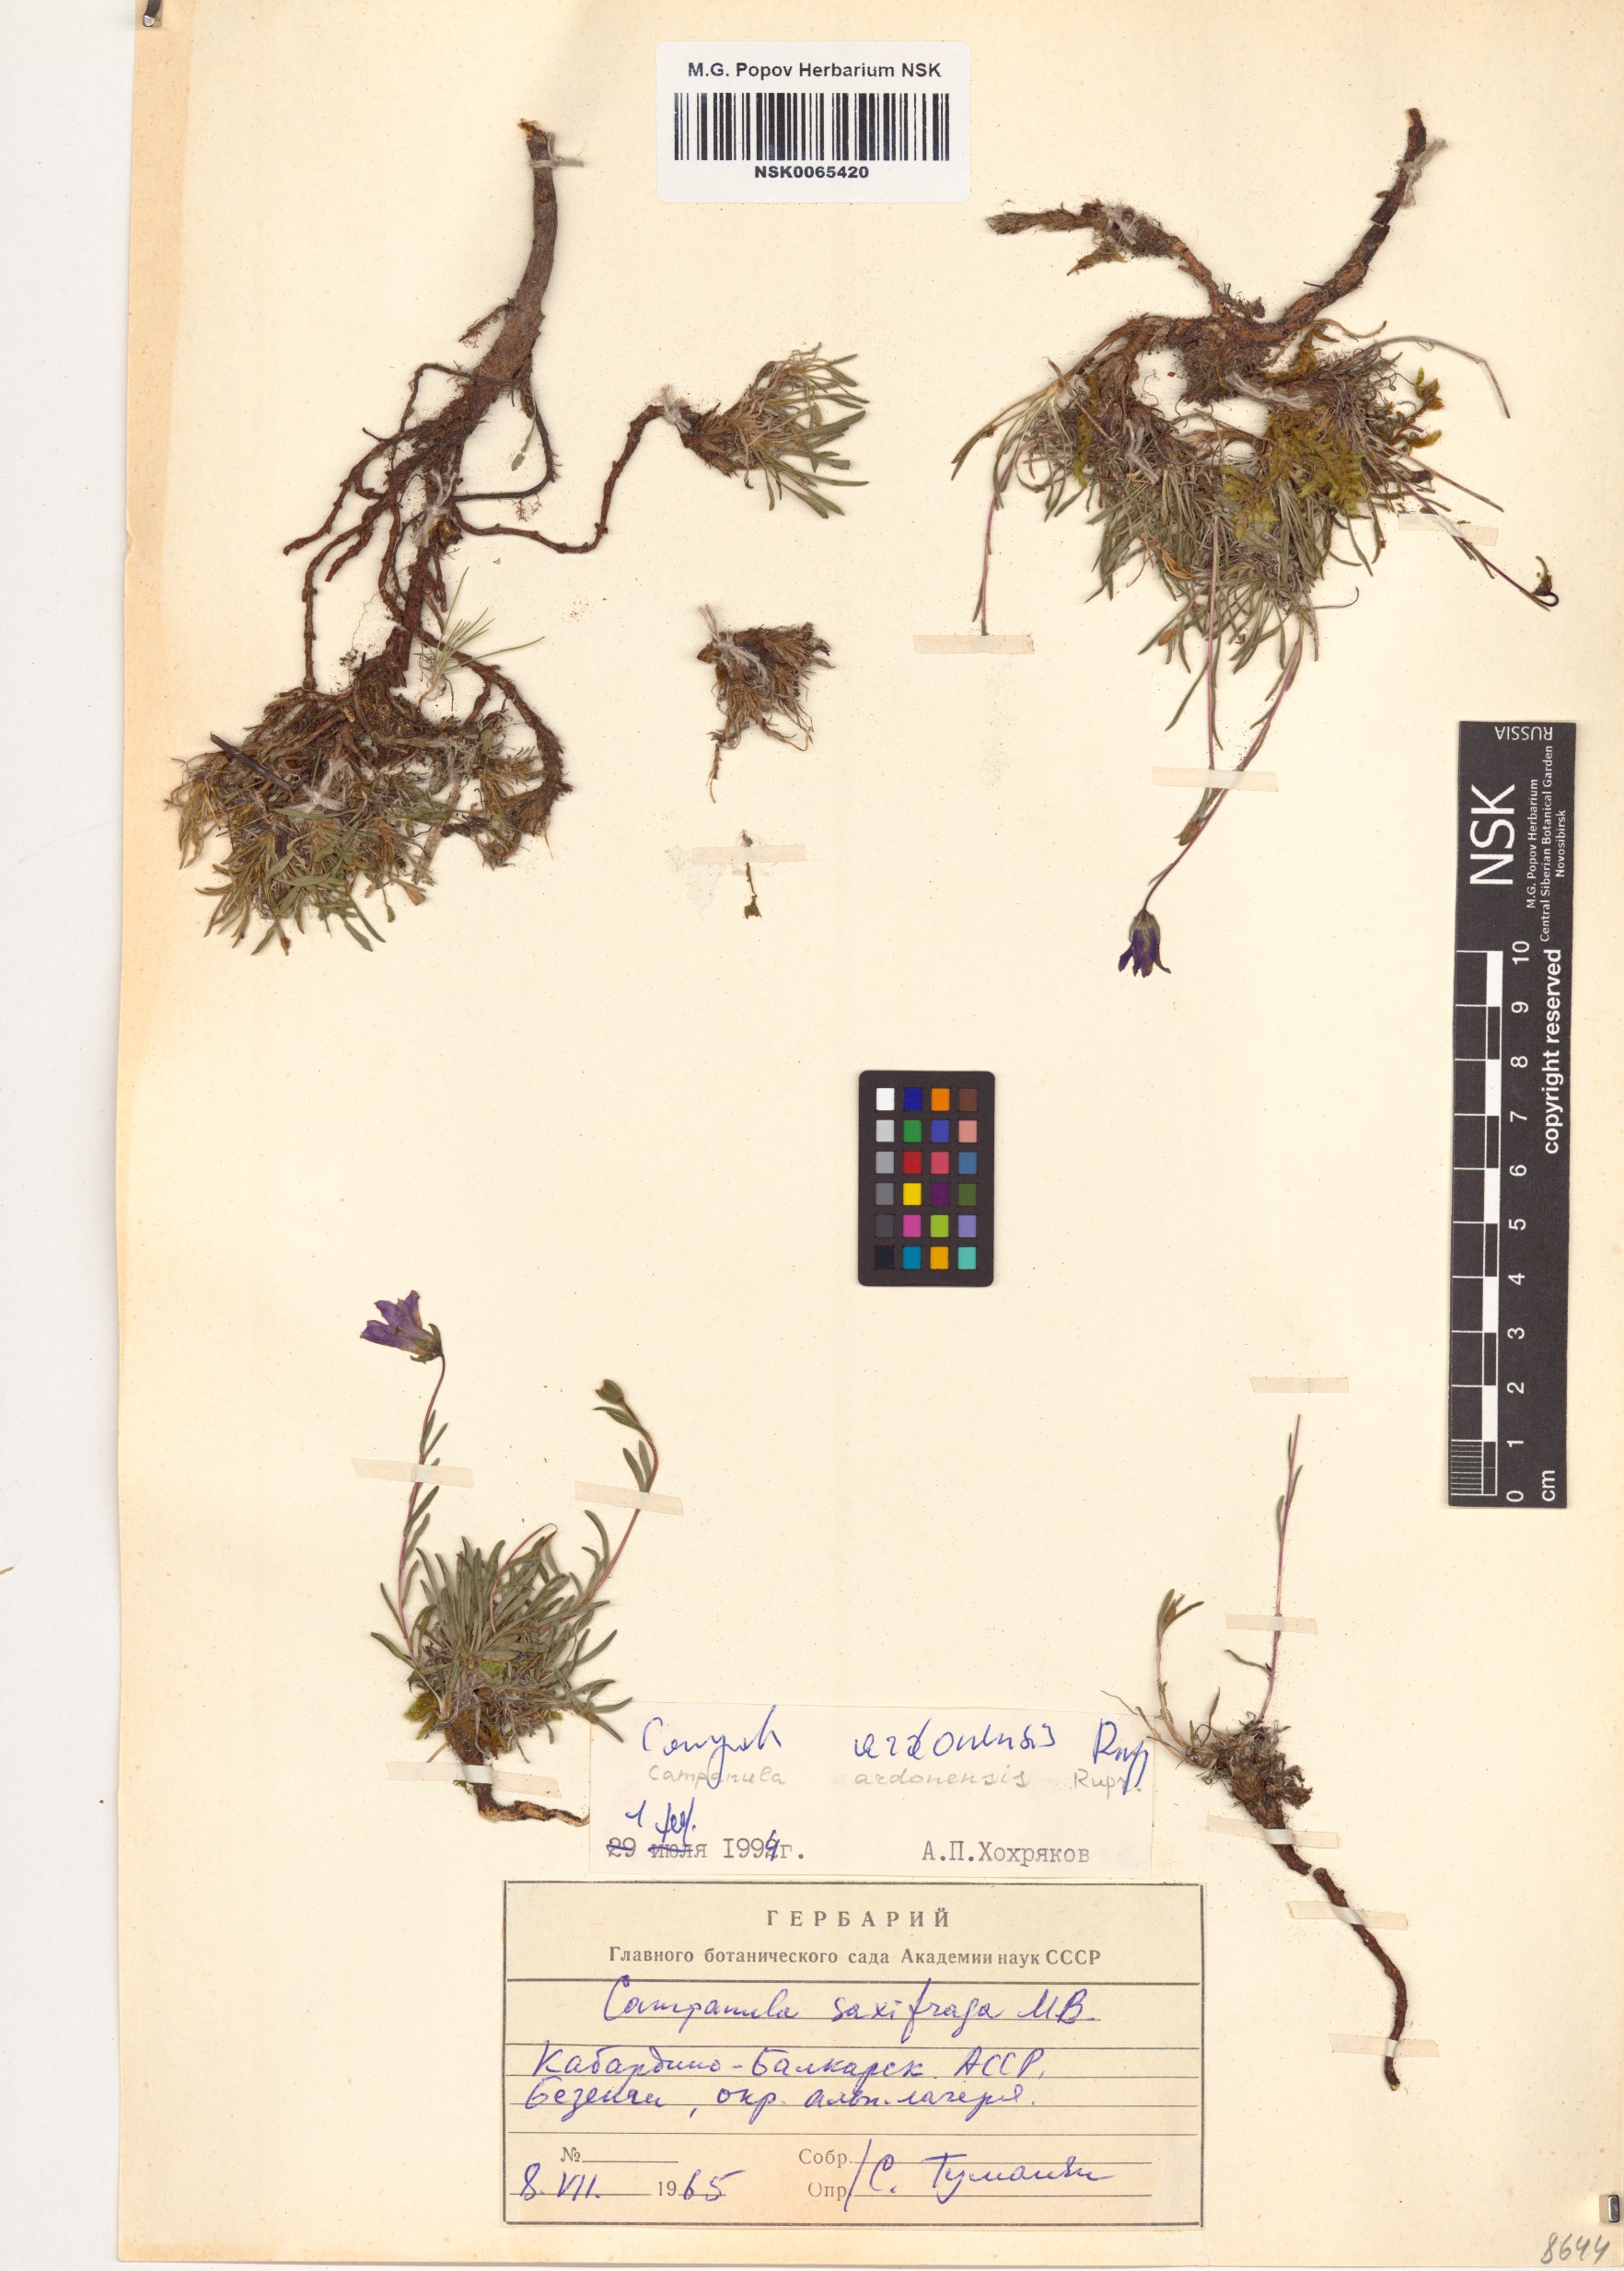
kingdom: Plantae
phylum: Tracheophyta
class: Magnoliopsida
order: Asterales
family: Campanulaceae
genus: Campanula
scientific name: Campanula bellidifolia
